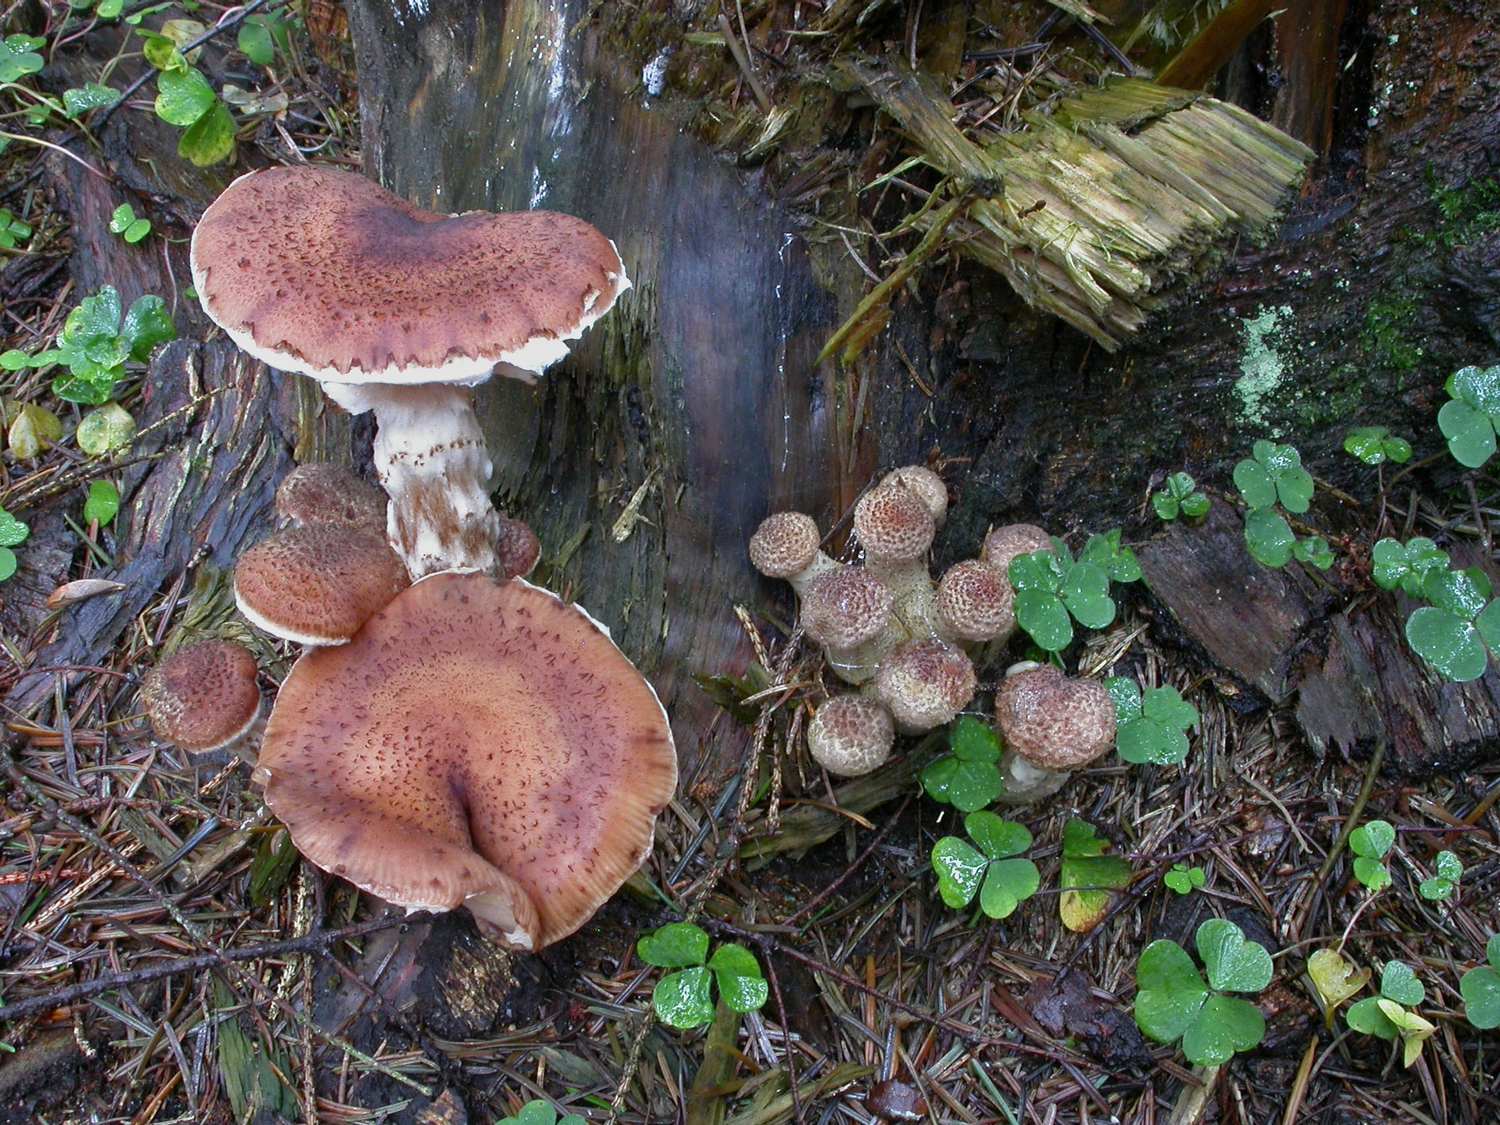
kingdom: Fungi
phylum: Basidiomycota
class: Agaricomycetes
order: Agaricales
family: Physalacriaceae
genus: Armillaria
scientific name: Armillaria ostoyae
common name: mørk honningsvamp
